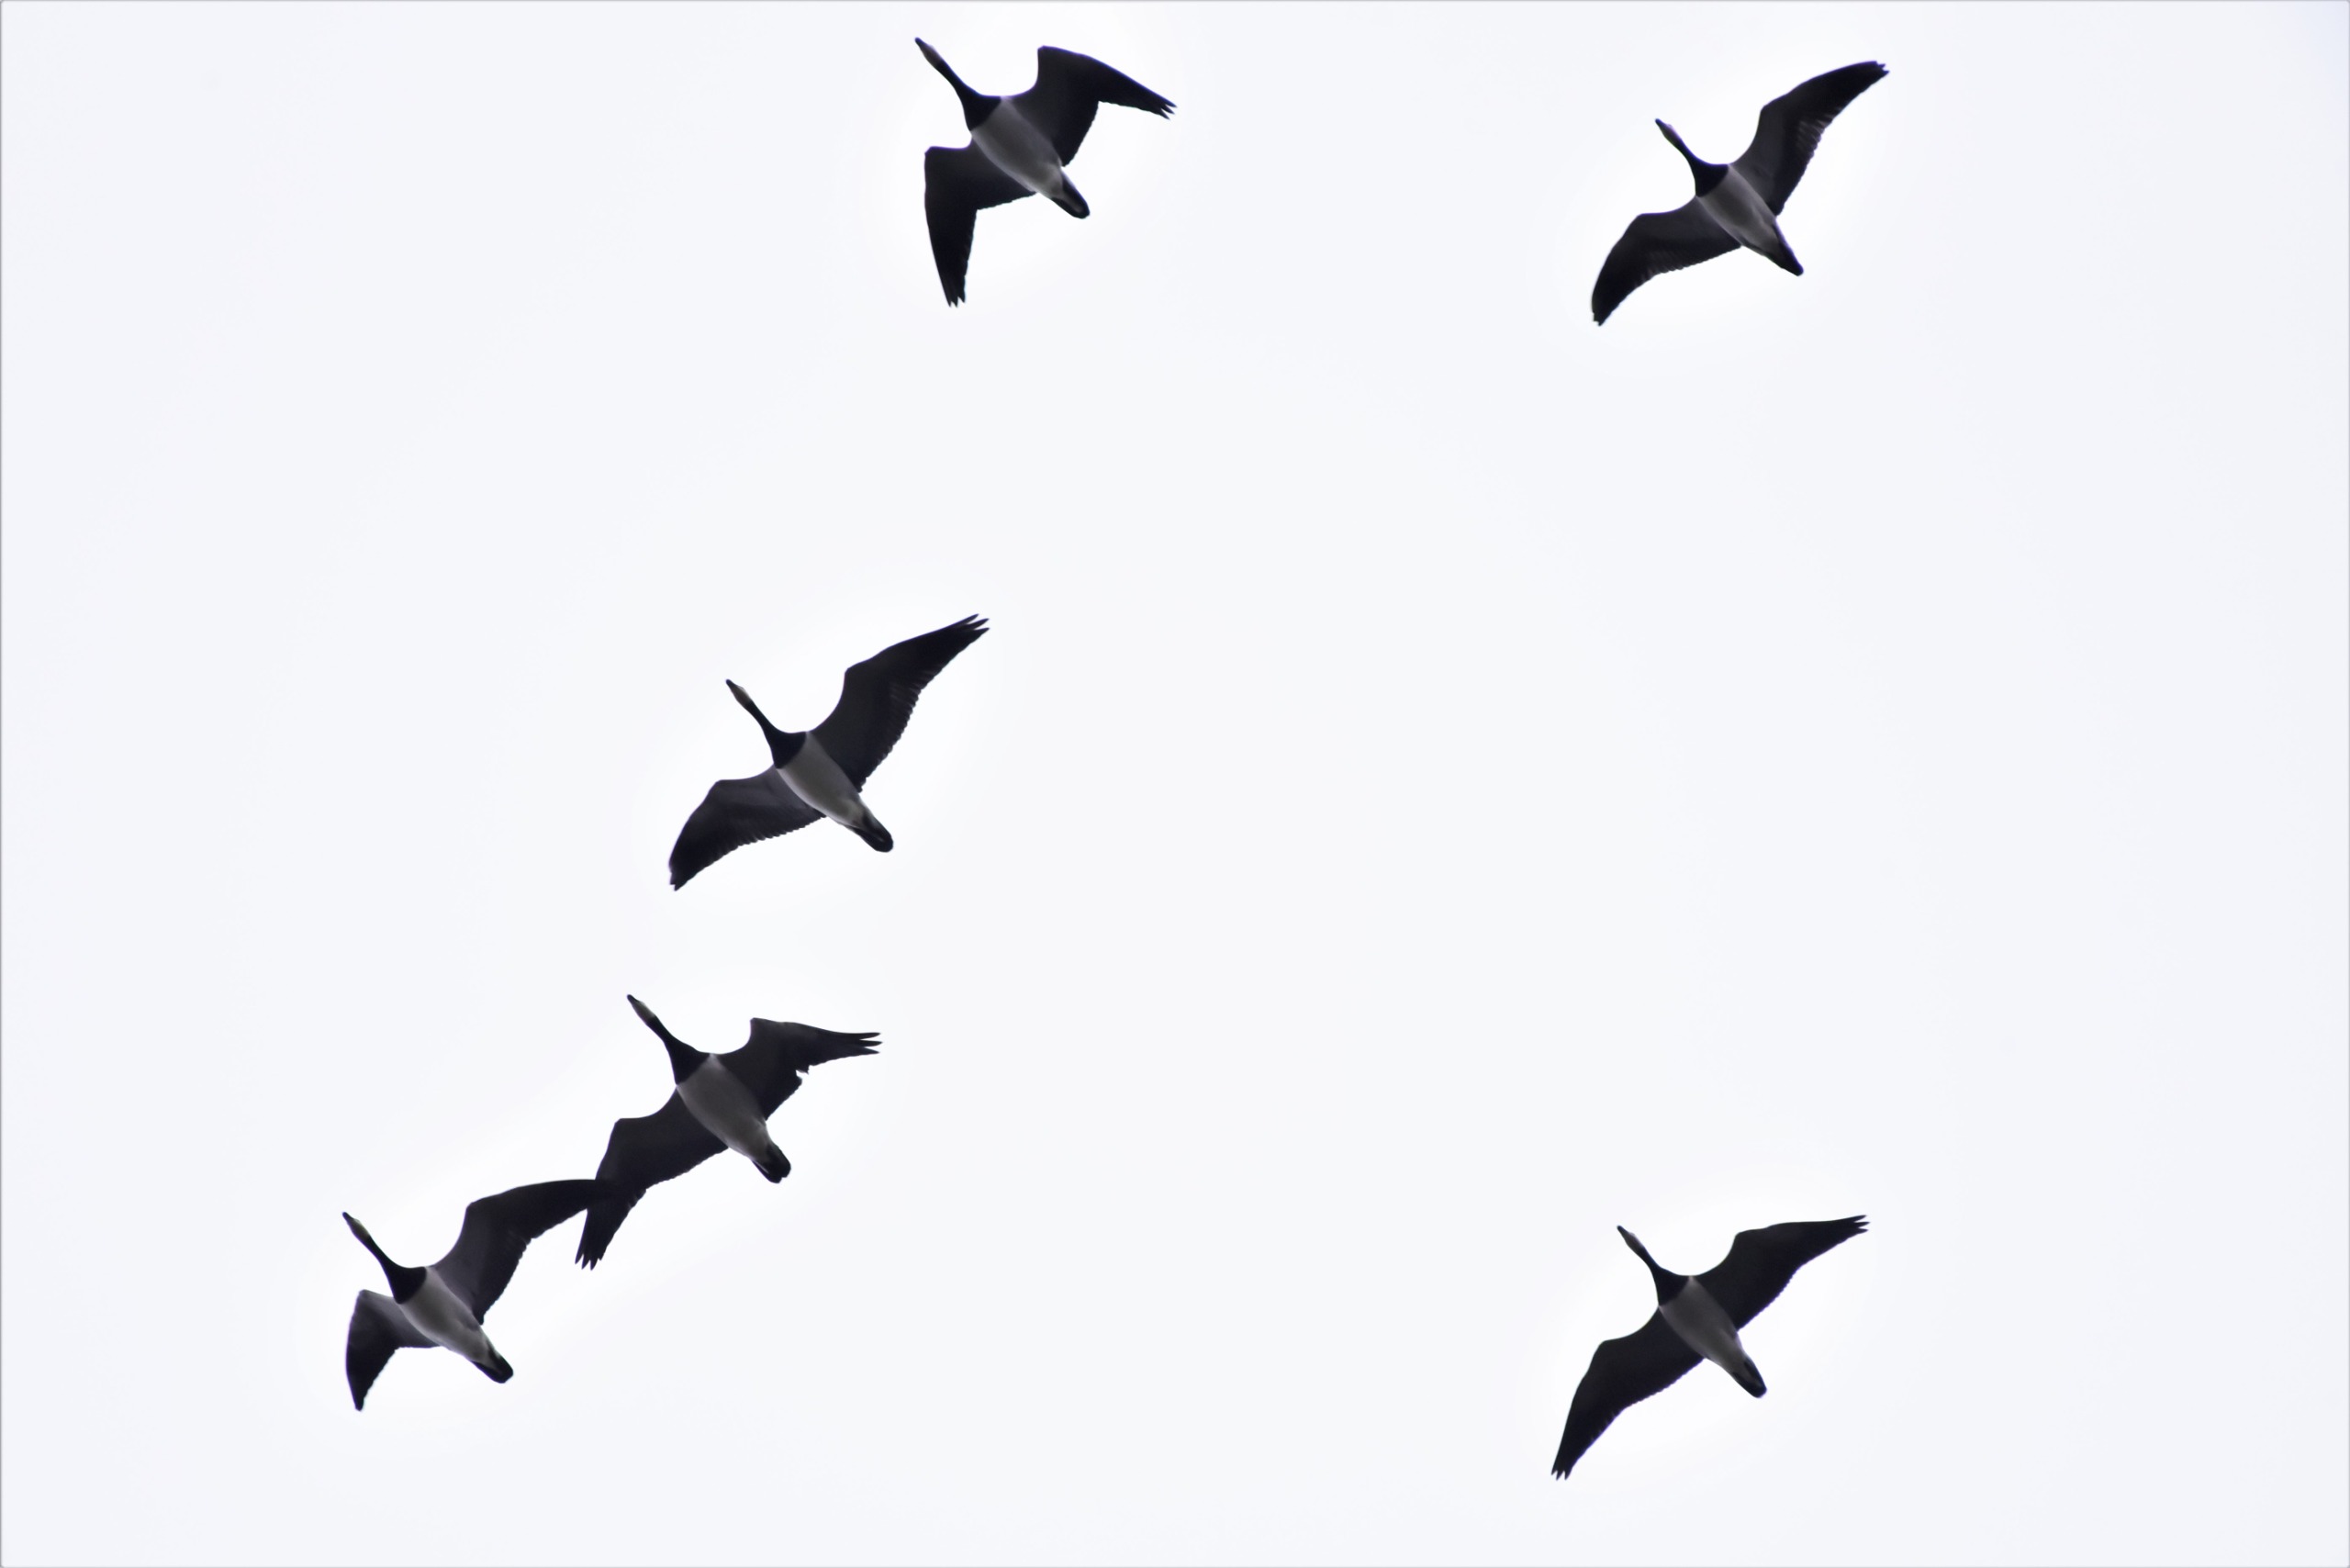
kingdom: Animalia
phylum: Chordata
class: Aves
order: Anseriformes
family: Anatidae
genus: Branta
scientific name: Branta leucopsis
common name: Bramgås
